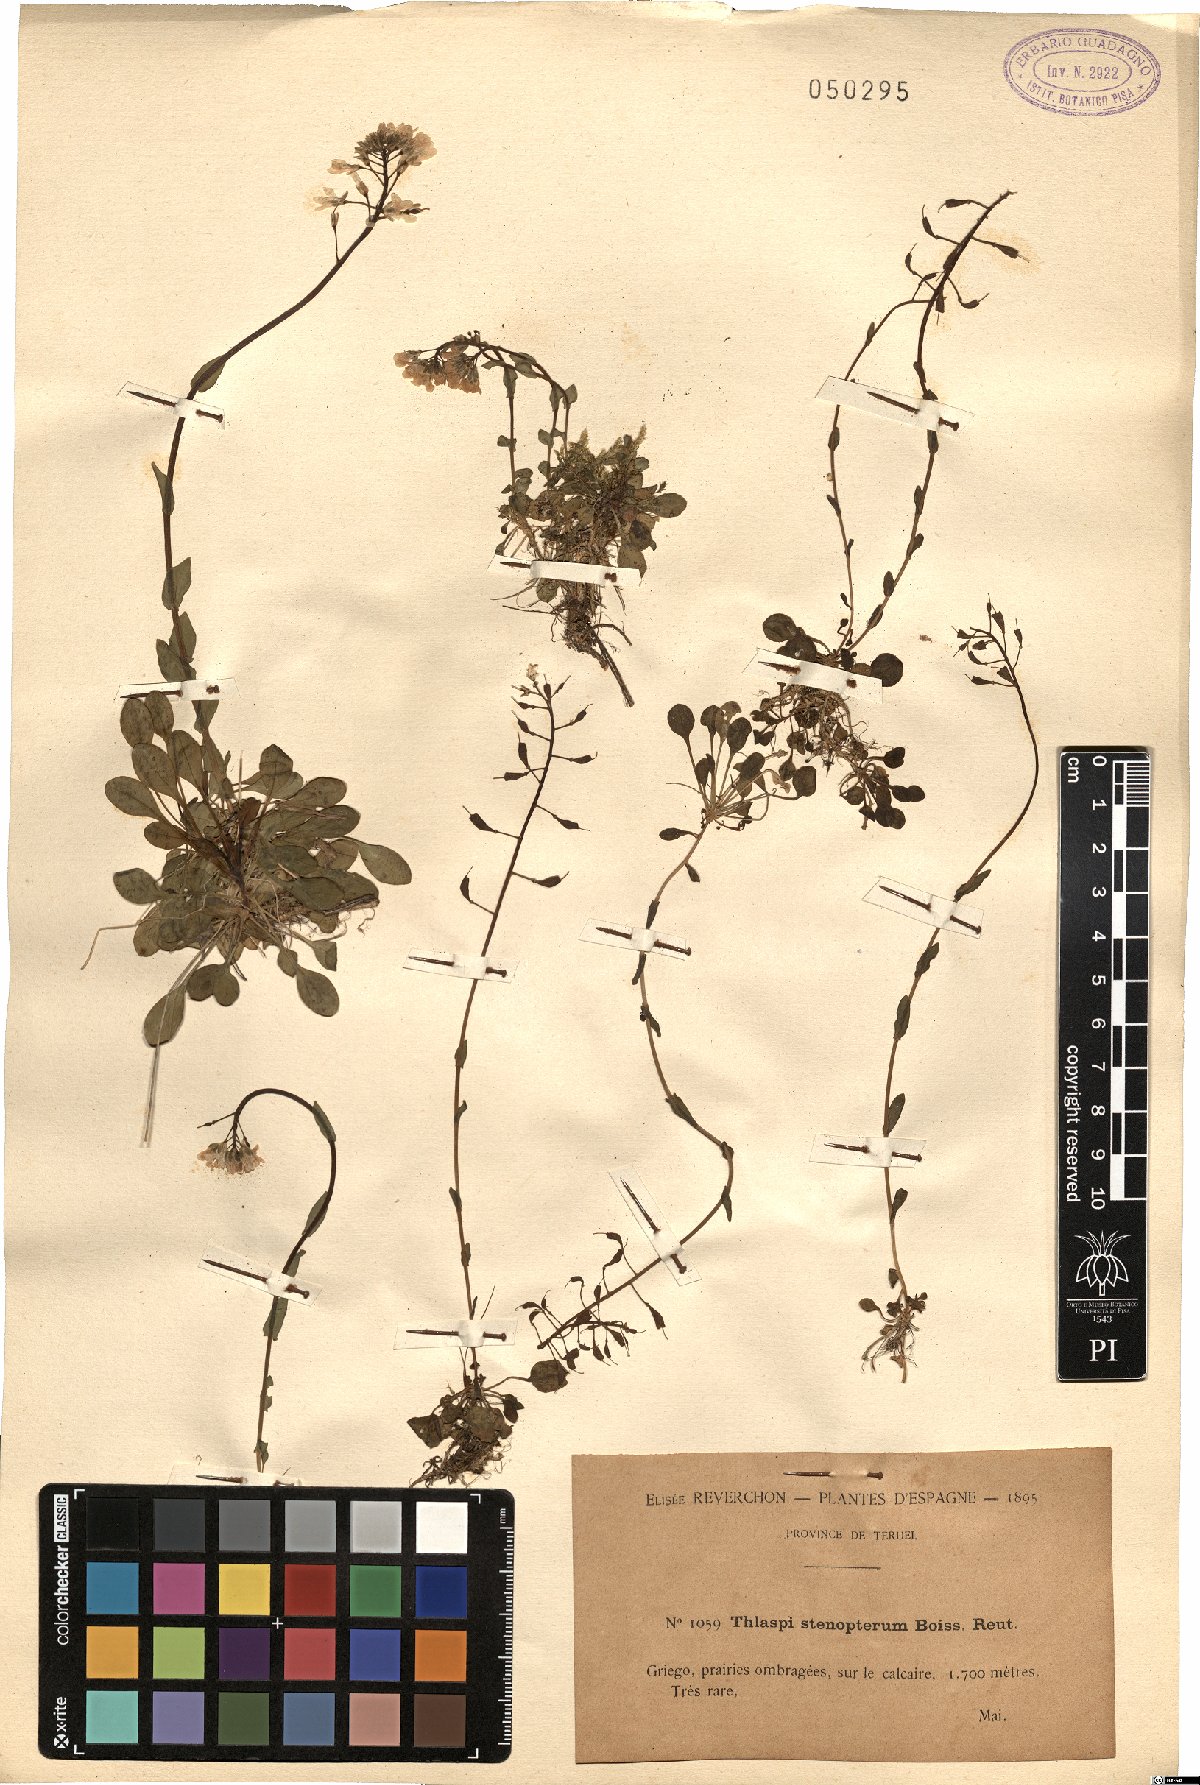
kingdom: Plantae
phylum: Tracheophyta
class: Magnoliopsida
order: Brassicales
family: Brassicaceae
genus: Noccaea
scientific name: Noccaea stenoptera
